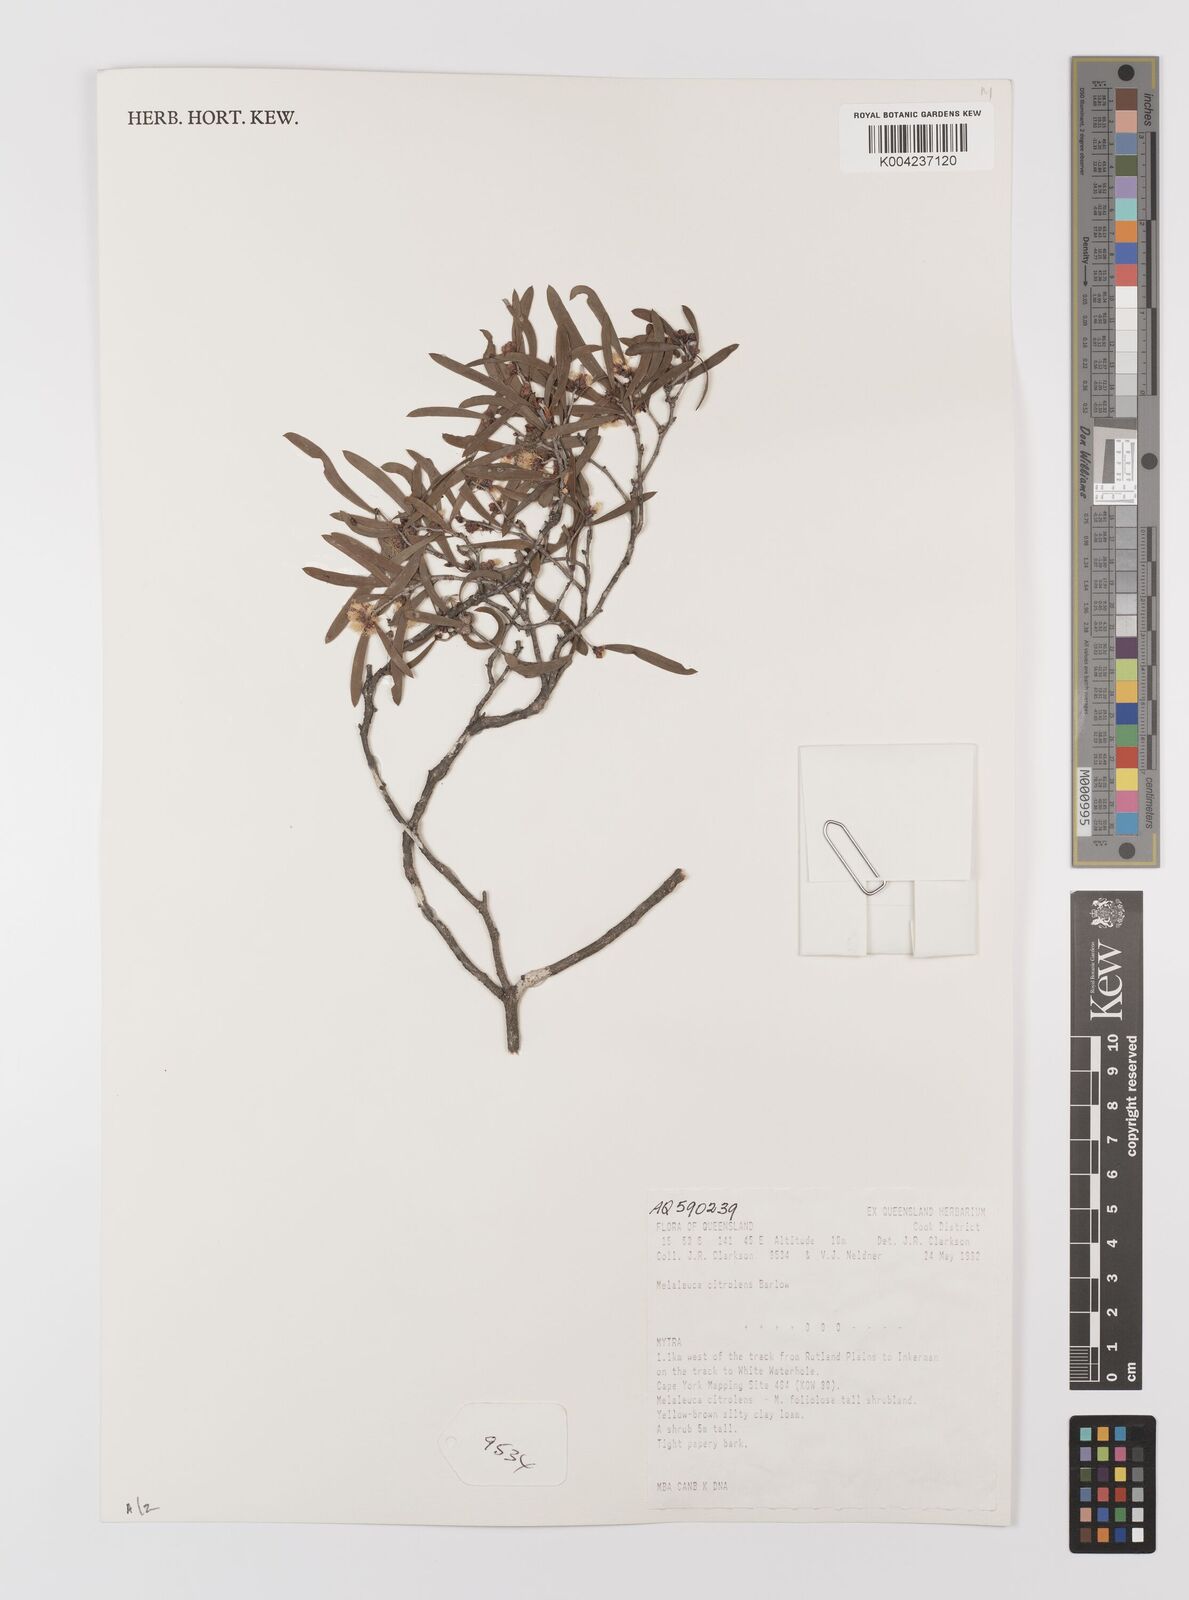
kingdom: Plantae
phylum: Tracheophyta
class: Magnoliopsida
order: Myrtales
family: Myrtaceae
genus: Melaleuca
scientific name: Melaleuca citrolens
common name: Lemon-scented paperbark
